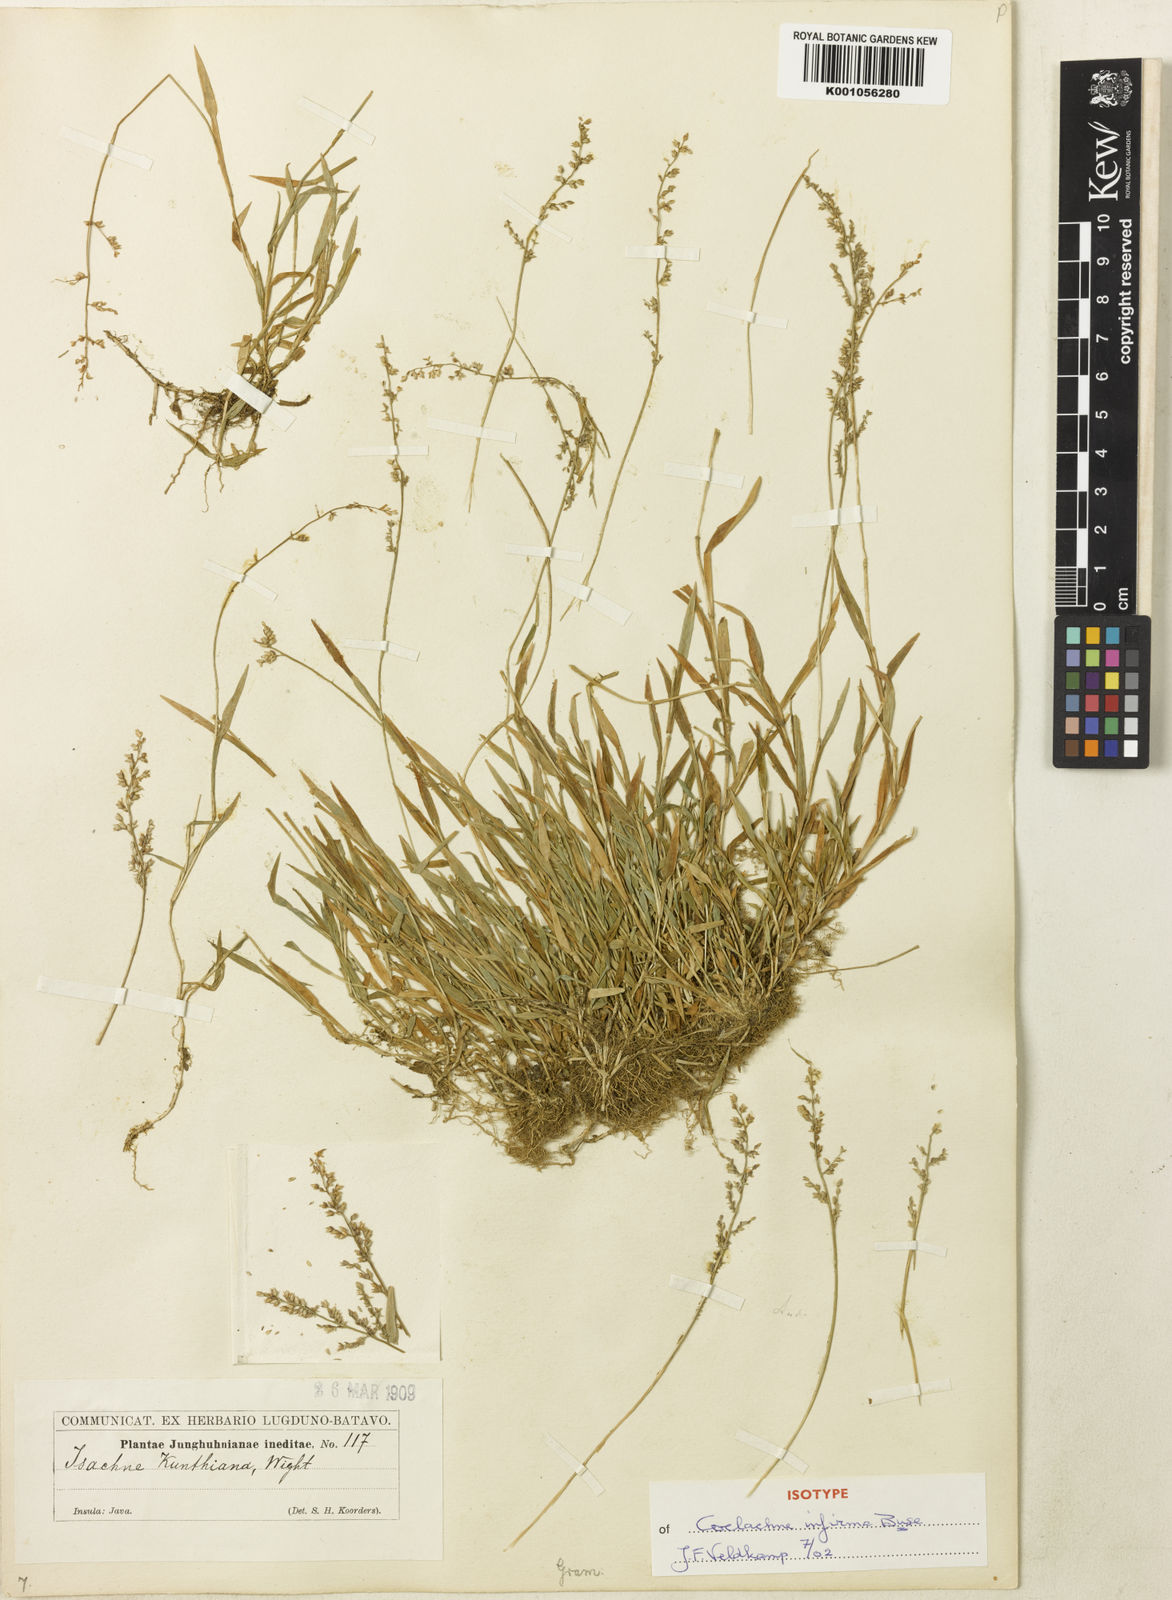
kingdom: Plantae
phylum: Tracheophyta
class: Liliopsida
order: Poales
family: Poaceae
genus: Coelachne
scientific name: Coelachne infirma
